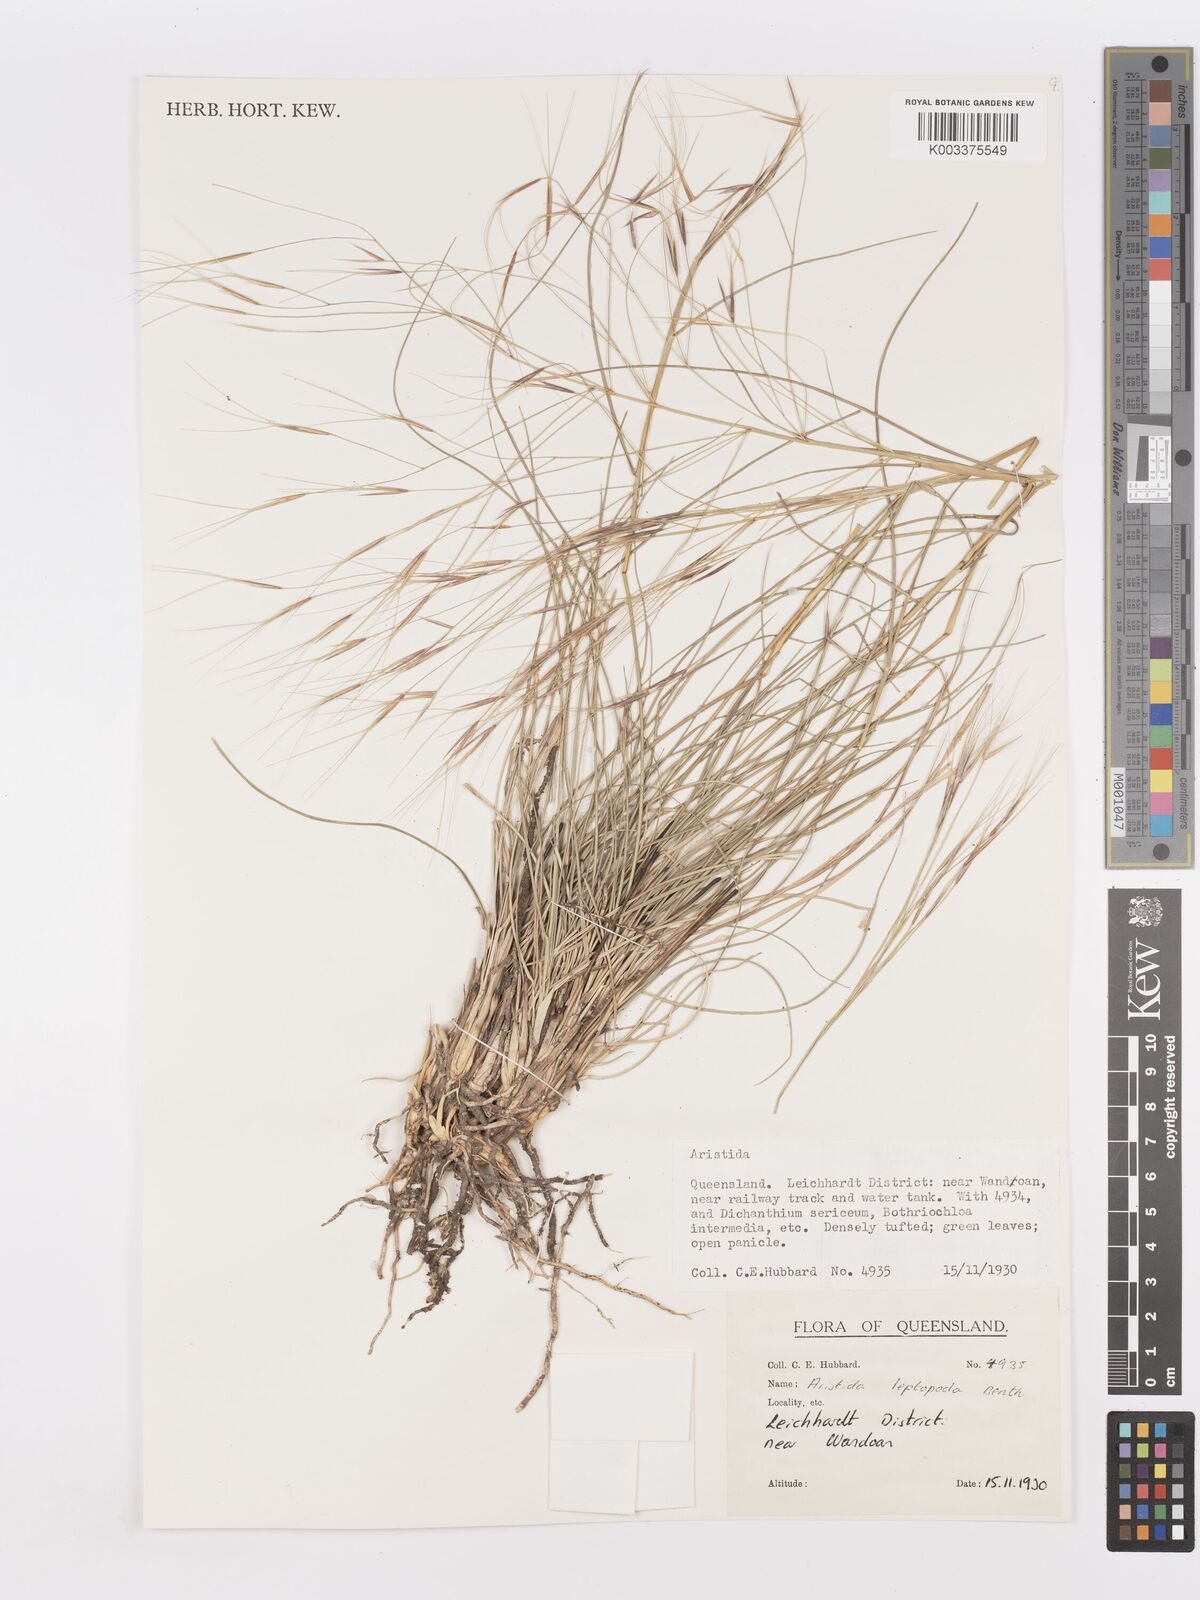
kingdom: Plantae
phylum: Tracheophyta
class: Liliopsida
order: Poales
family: Poaceae
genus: Aristida
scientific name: Aristida leptopoda
